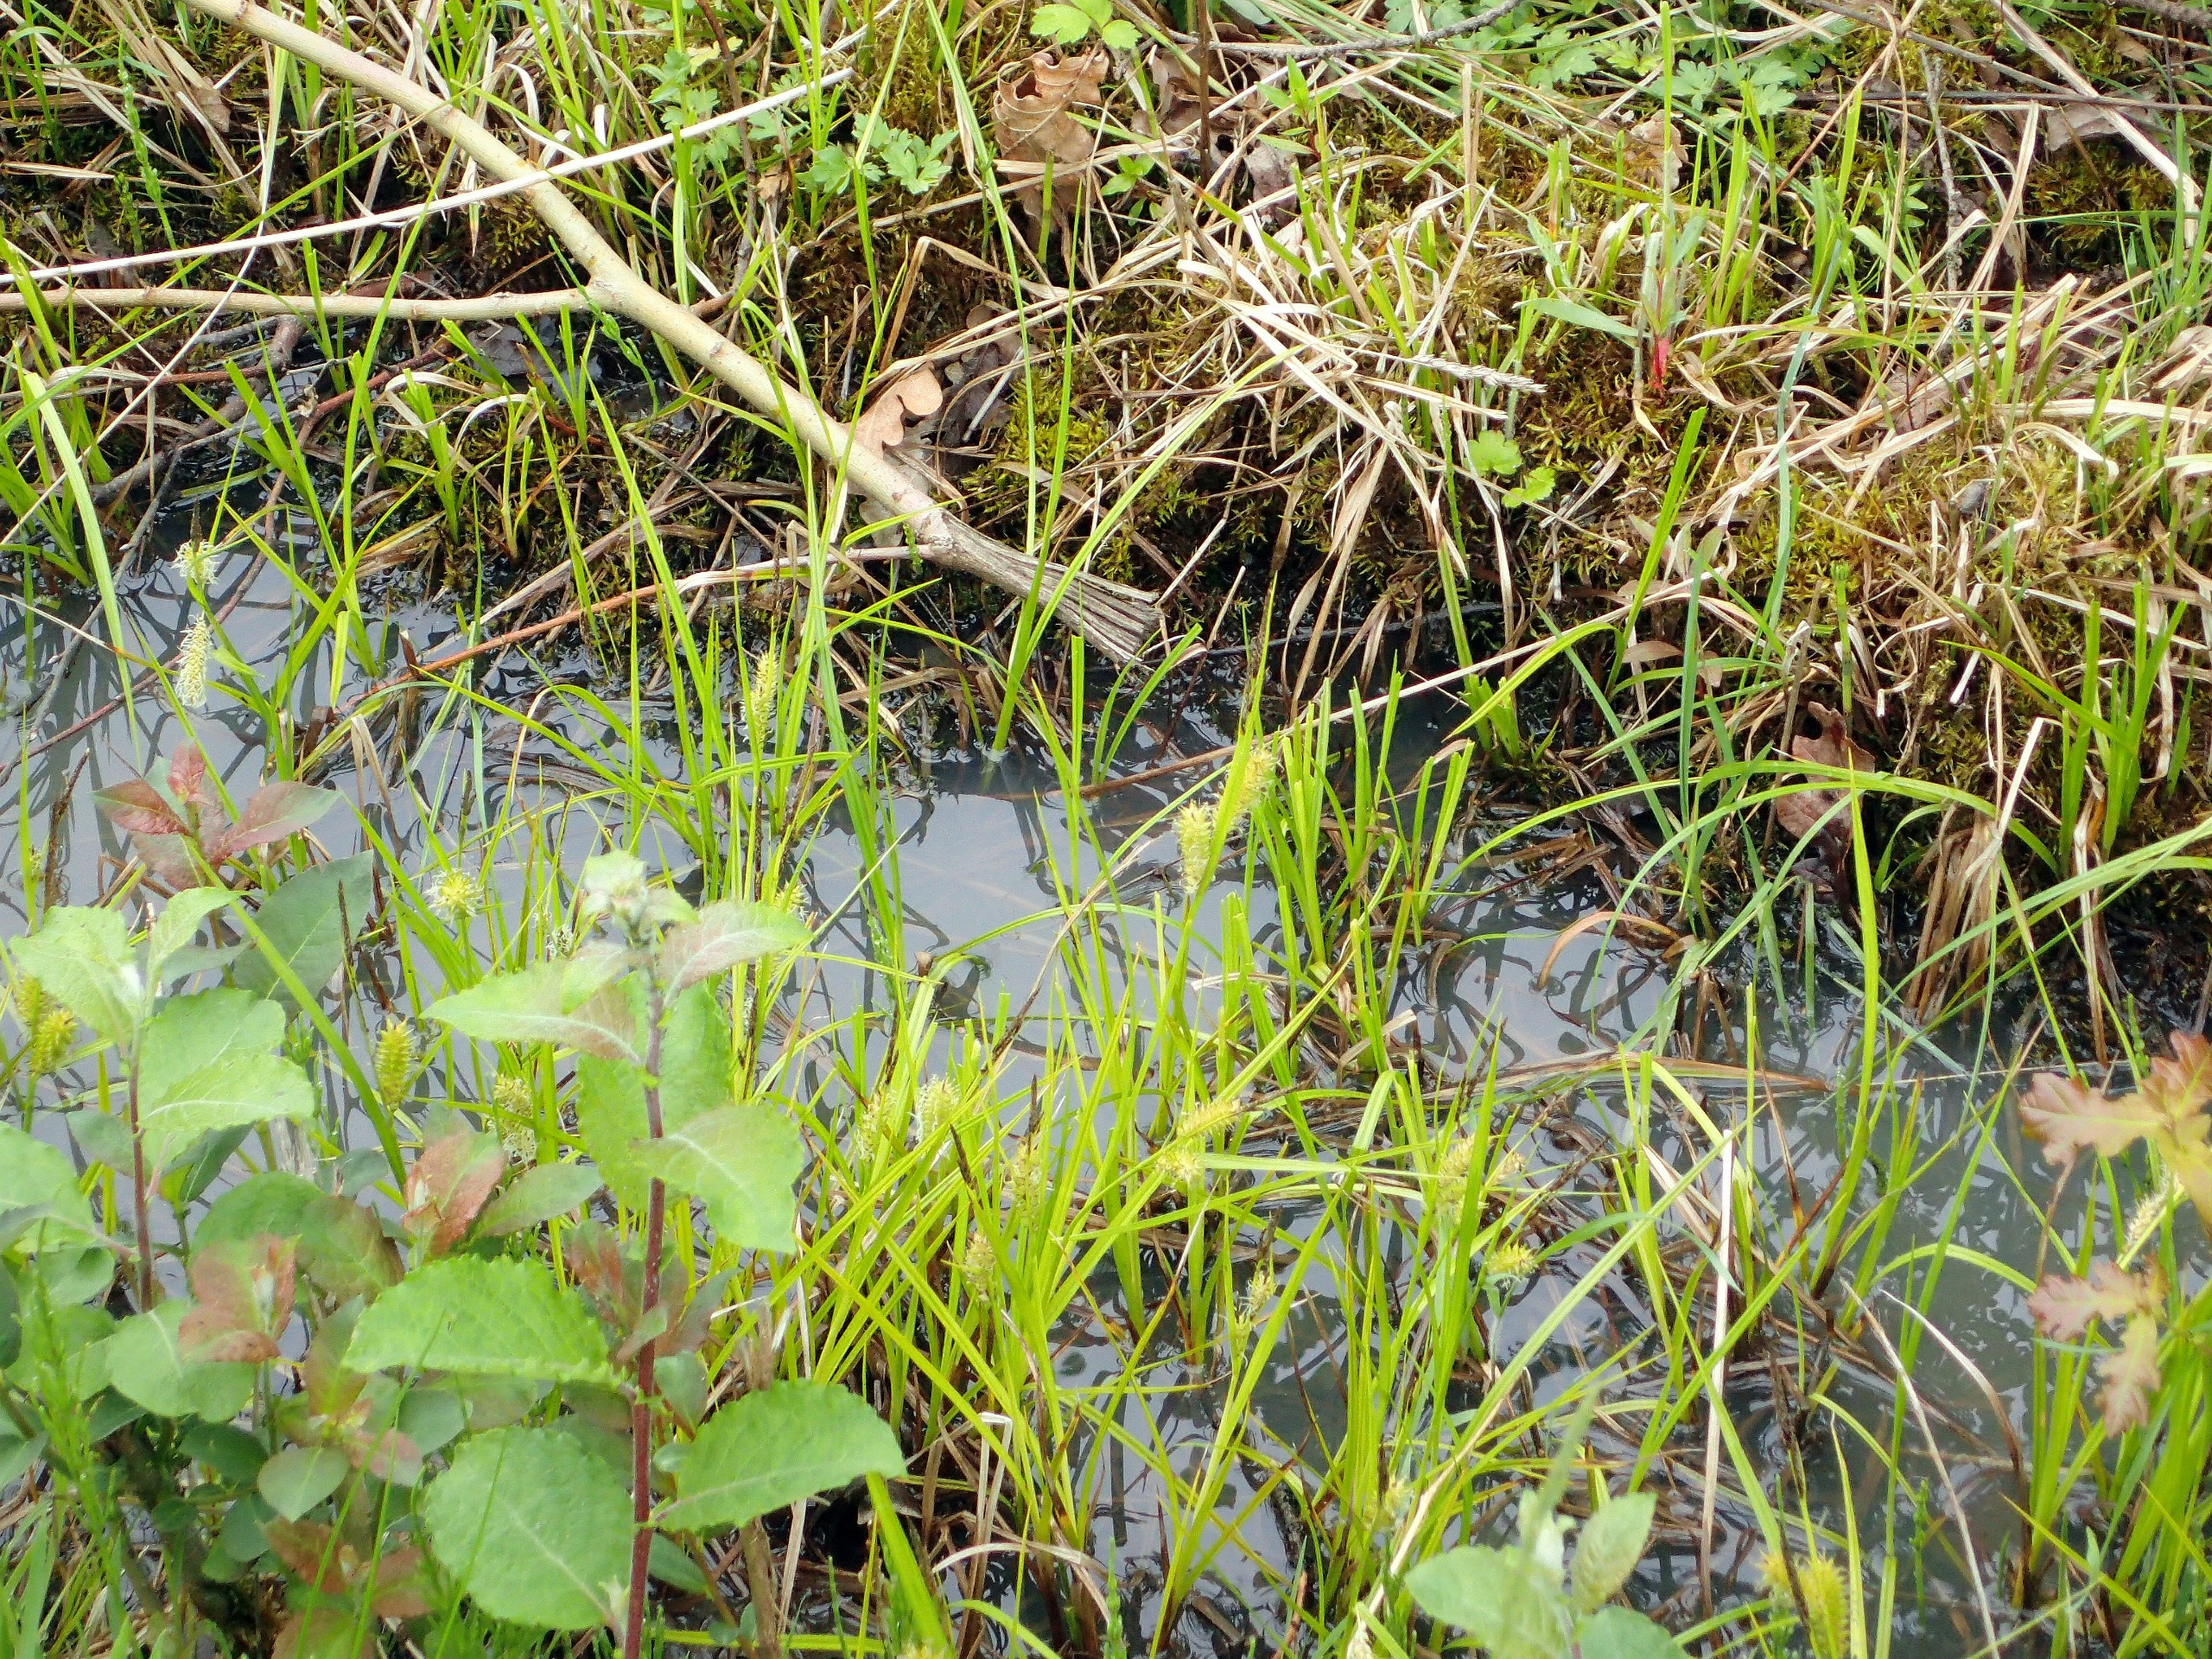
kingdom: Plantae
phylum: Tracheophyta
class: Liliopsida
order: Poales
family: Cyperaceae
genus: Carex
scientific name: Carex vesicaria
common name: Blære-star
